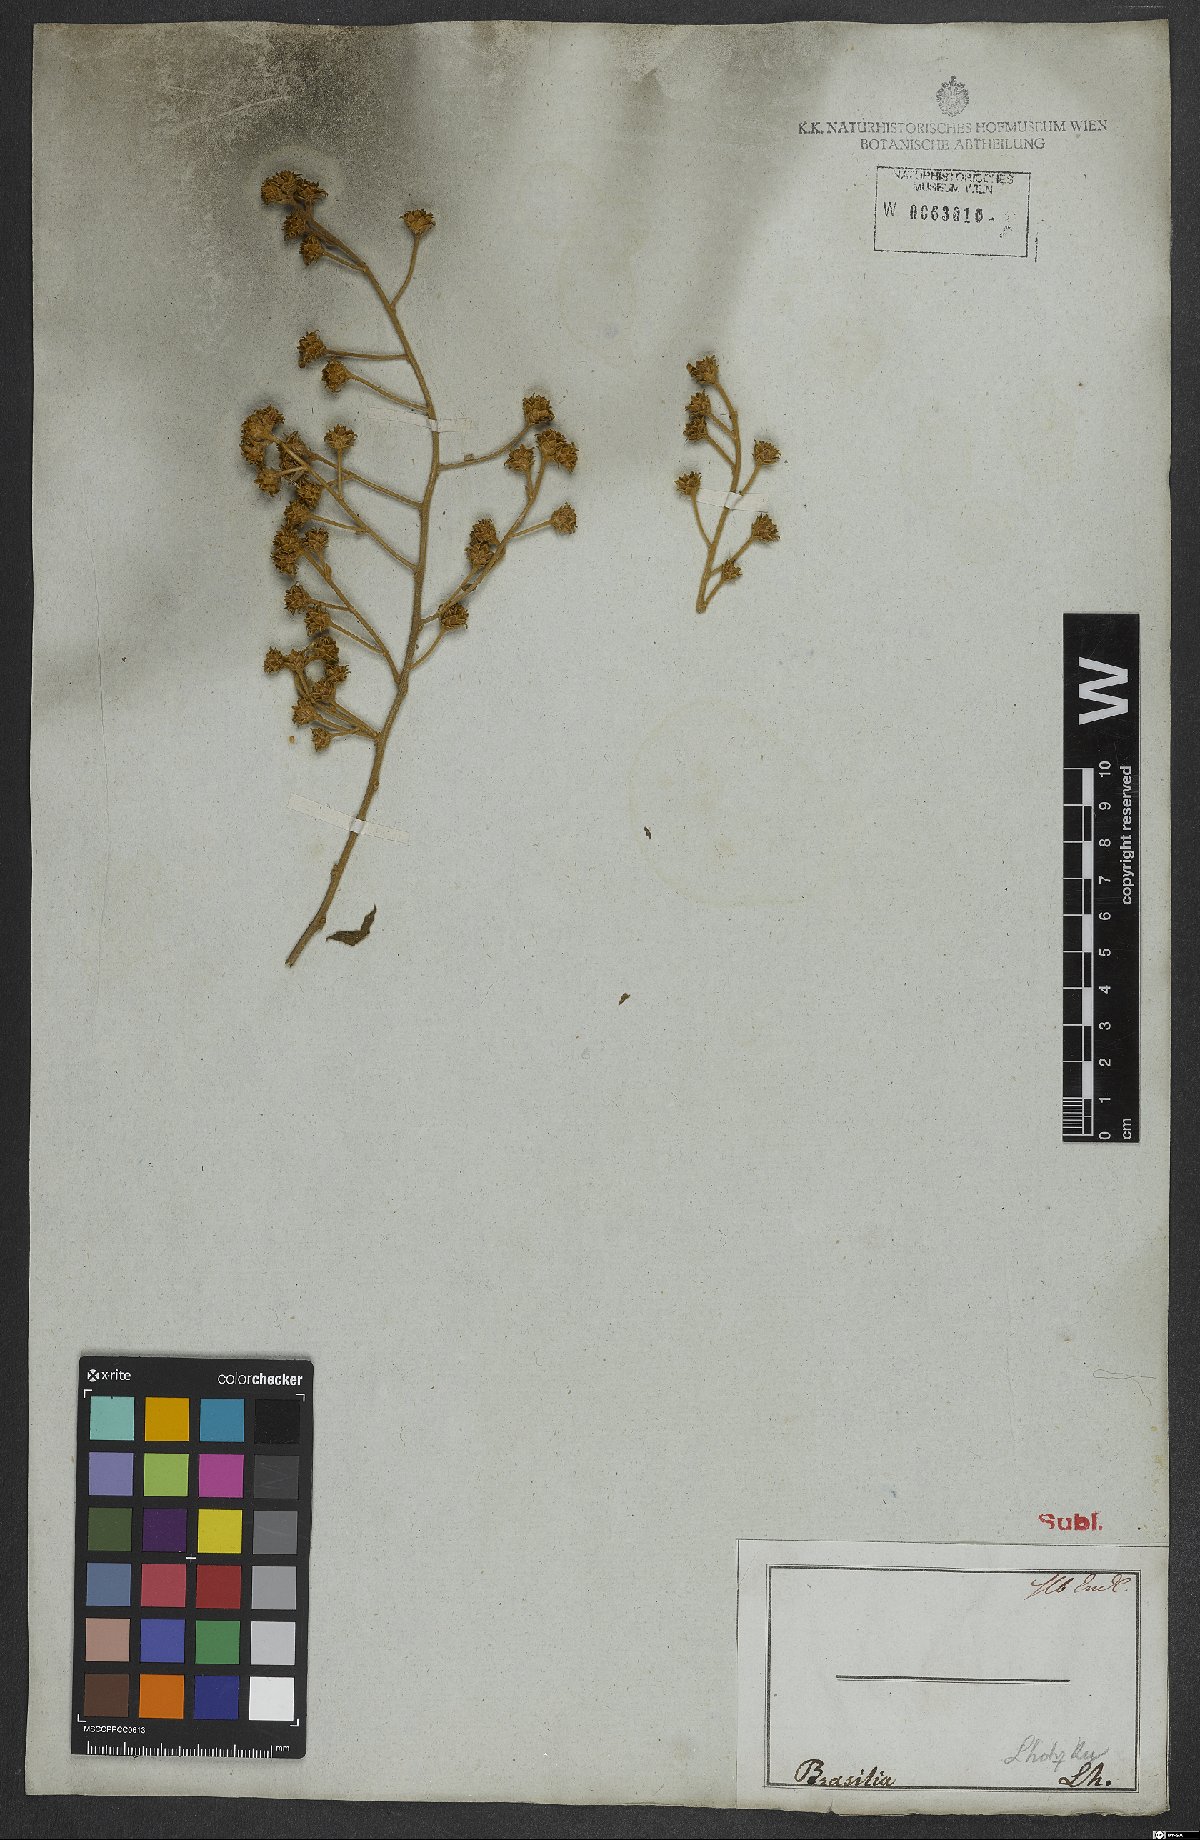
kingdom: Plantae
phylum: Tracheophyta
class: Magnoliopsida
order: Asterales
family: Asteraceae
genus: Dasyphyllum
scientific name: Dasyphyllum synacanthum
